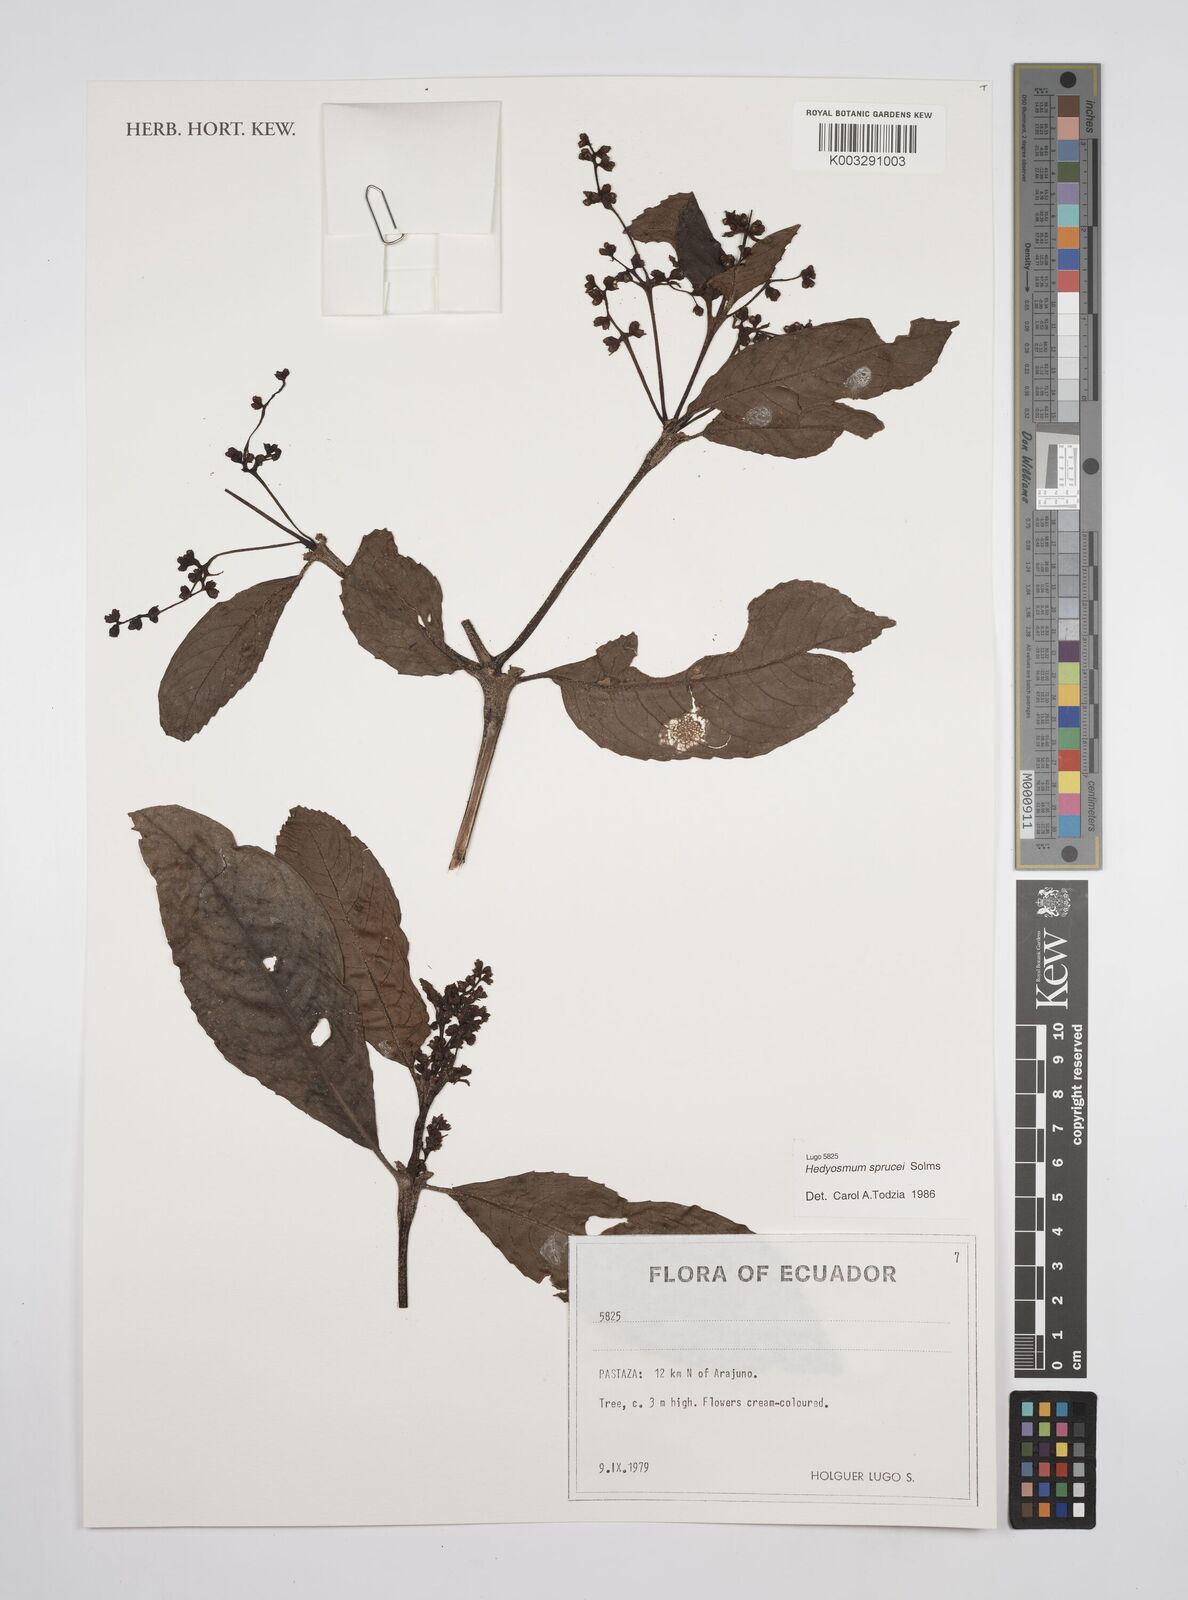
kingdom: Plantae
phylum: Tracheophyta
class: Magnoliopsida
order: Chloranthales
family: Chloranthaceae
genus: Hedyosmum
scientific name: Hedyosmum sprucei
